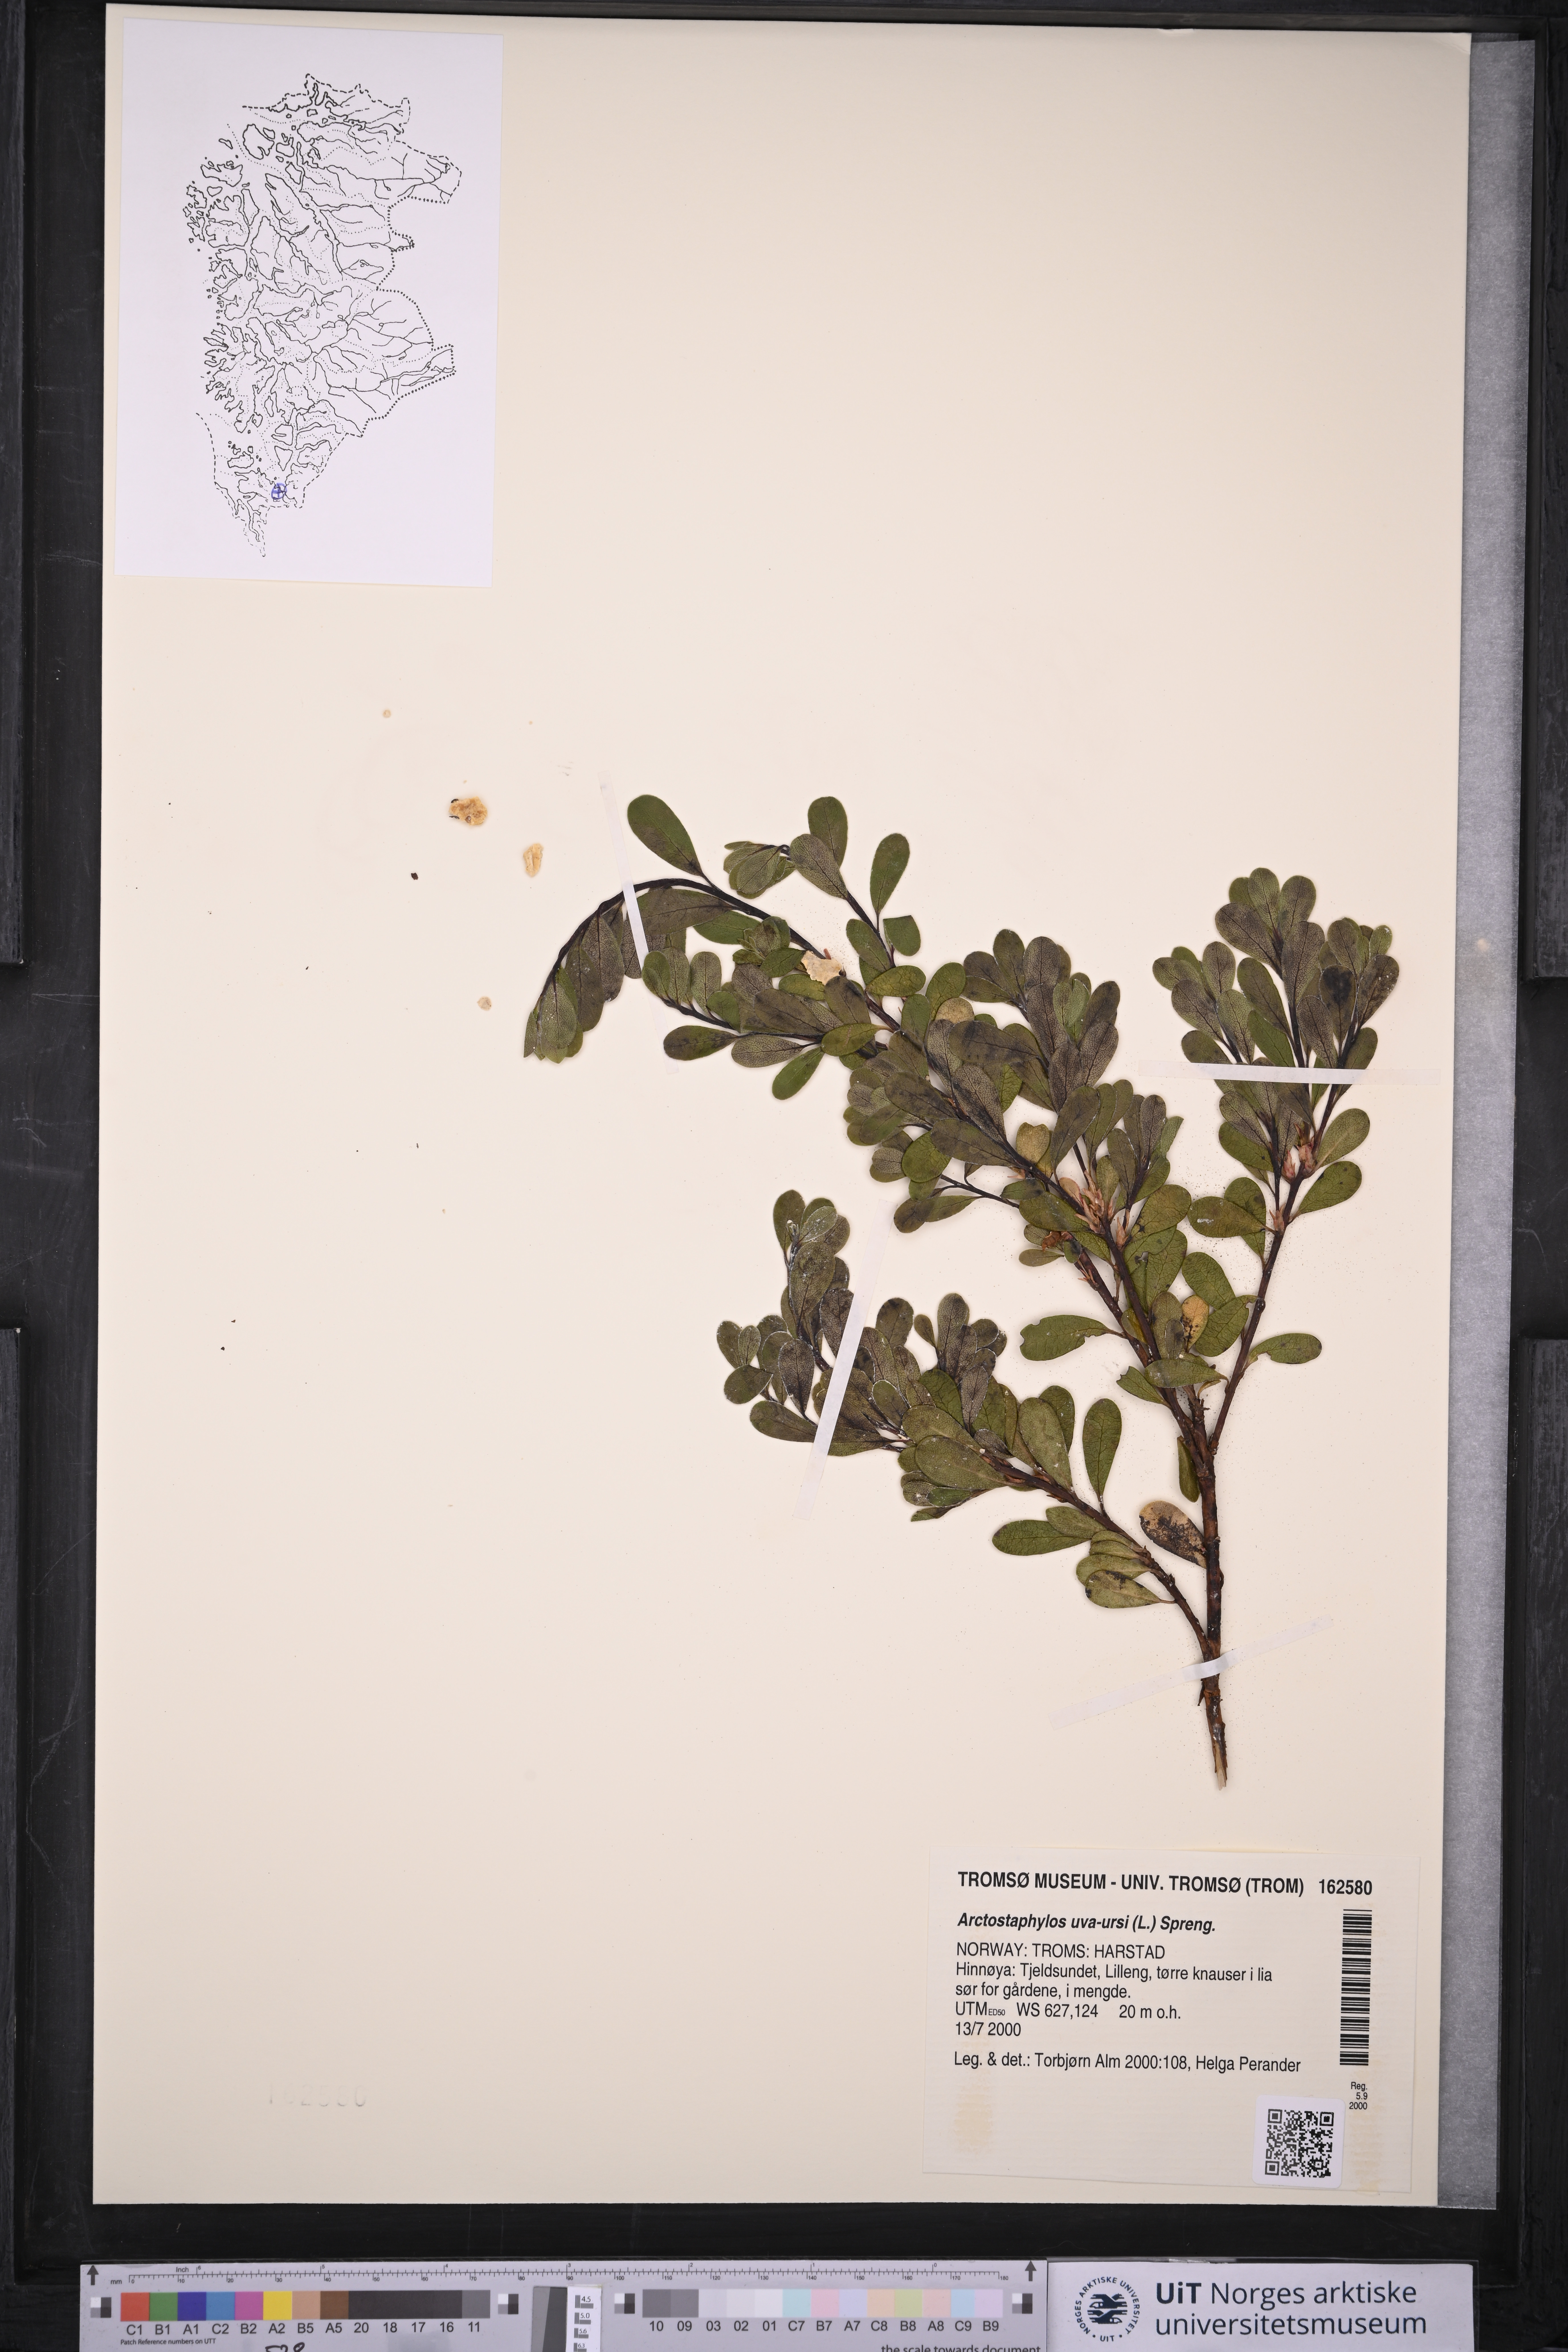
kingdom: Plantae
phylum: Tracheophyta
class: Magnoliopsida
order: Ericales
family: Ericaceae
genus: Arctostaphylos
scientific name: Arctostaphylos uva-ursi
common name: Bearberry
